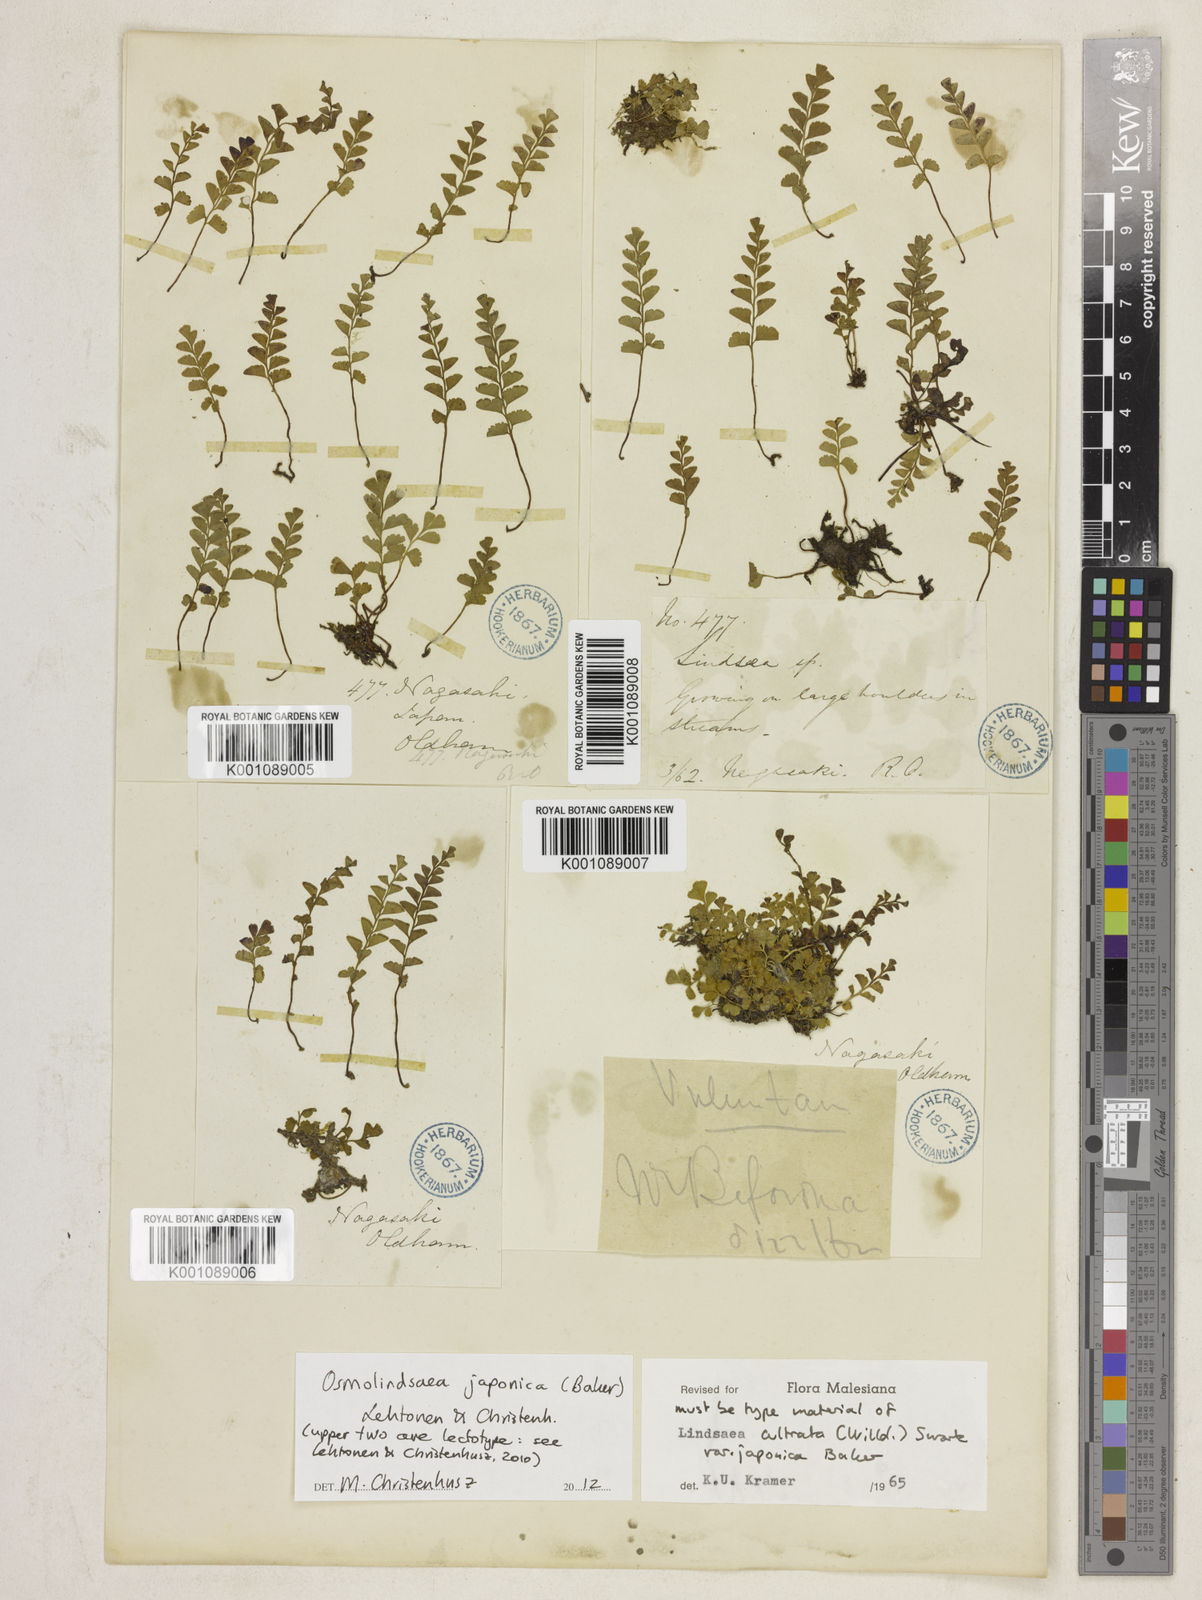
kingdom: Plantae
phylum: Tracheophyta
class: Polypodiopsida
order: Polypodiales
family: Lindsaeaceae
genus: Osmolindsaea
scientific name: Osmolindsaea japonica
